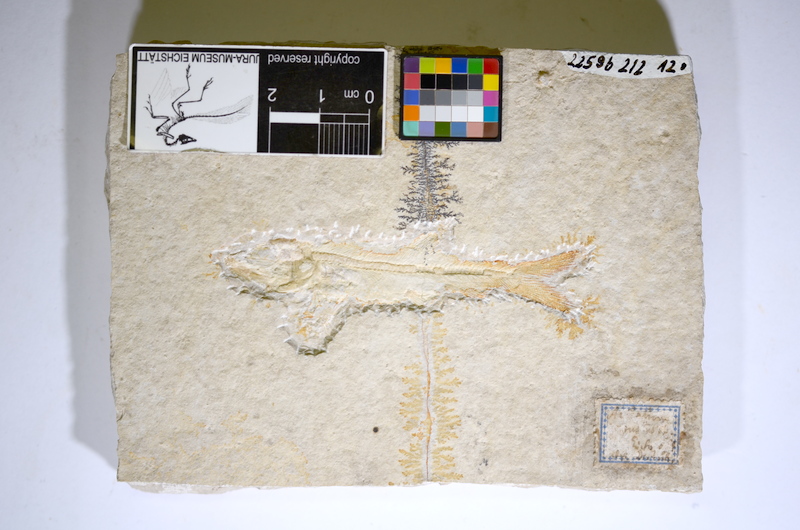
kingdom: Animalia
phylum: Chordata
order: Elopiformes
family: Anaethalionidae
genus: Anaethalion
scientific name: Anaethalion angustus
